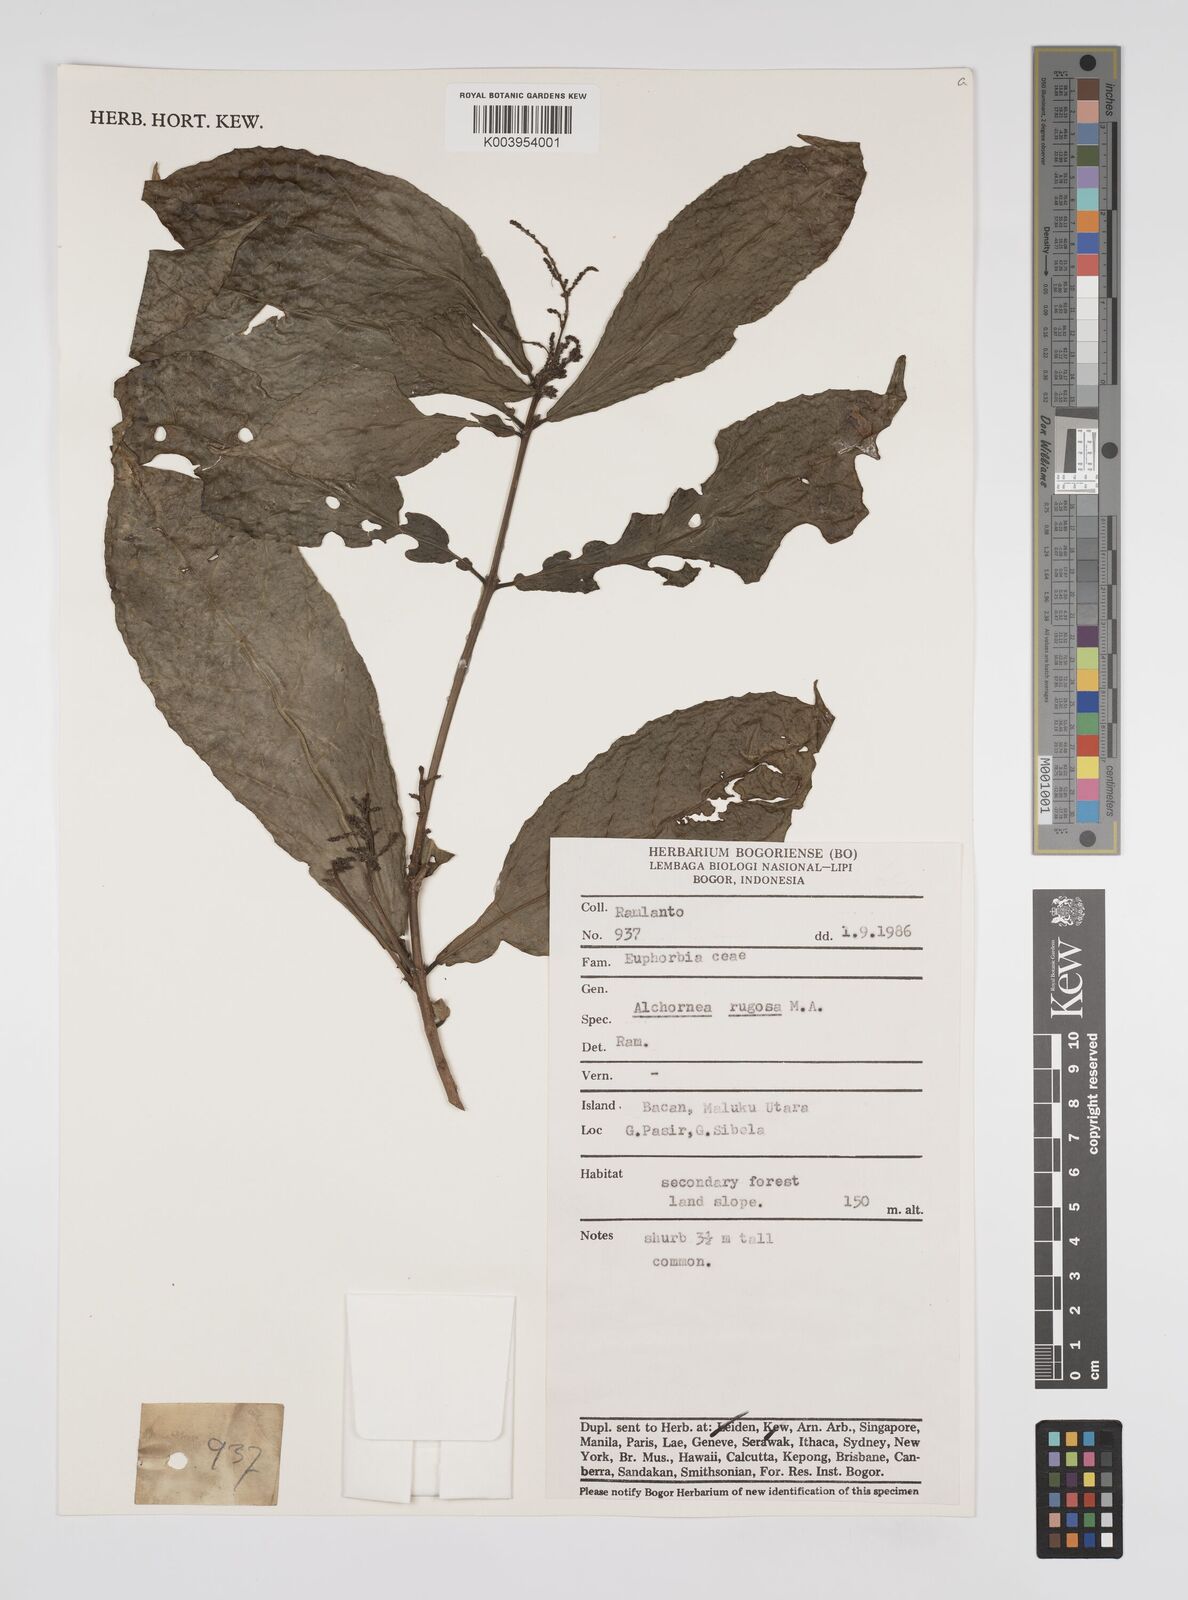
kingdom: Plantae
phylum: Tracheophyta
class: Magnoliopsida
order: Malpighiales
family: Euphorbiaceae
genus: Alchornea
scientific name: Alchornea rugosa
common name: Alchorntree
